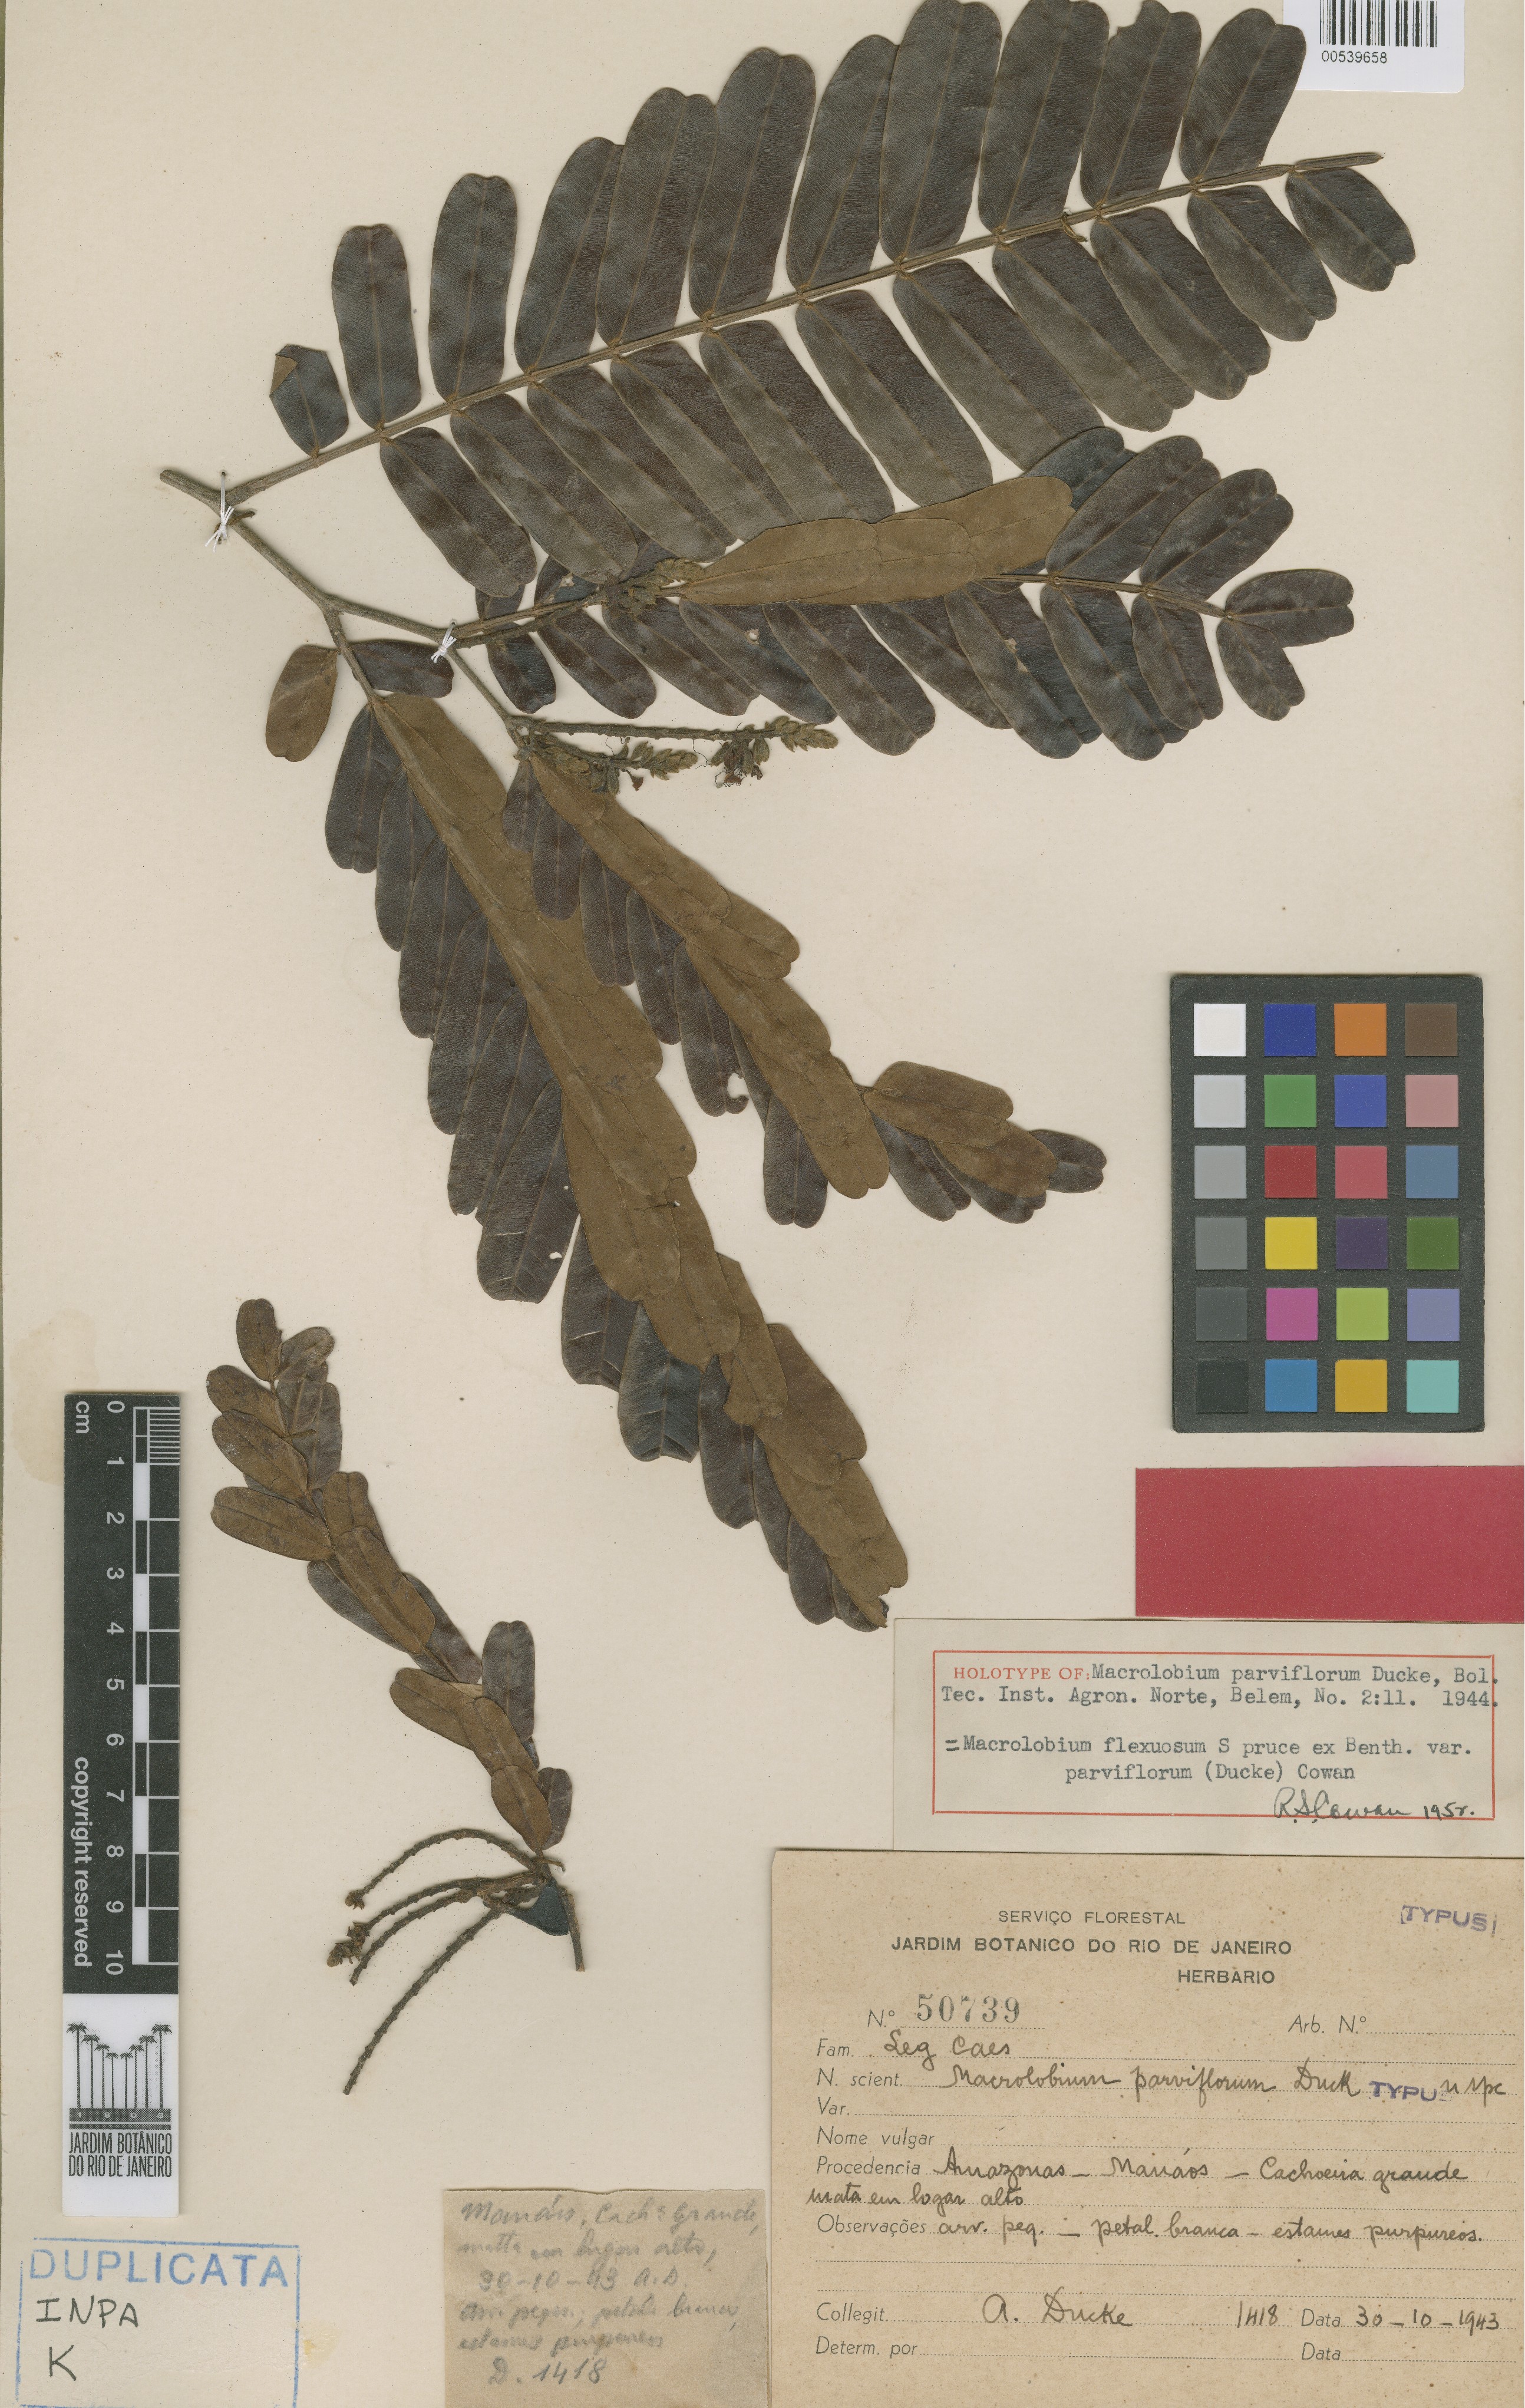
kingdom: Plantae
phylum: Tracheophyta
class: Magnoliopsida
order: Fabales
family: Fabaceae
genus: Macrolobium
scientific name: Macrolobium flexuosum
